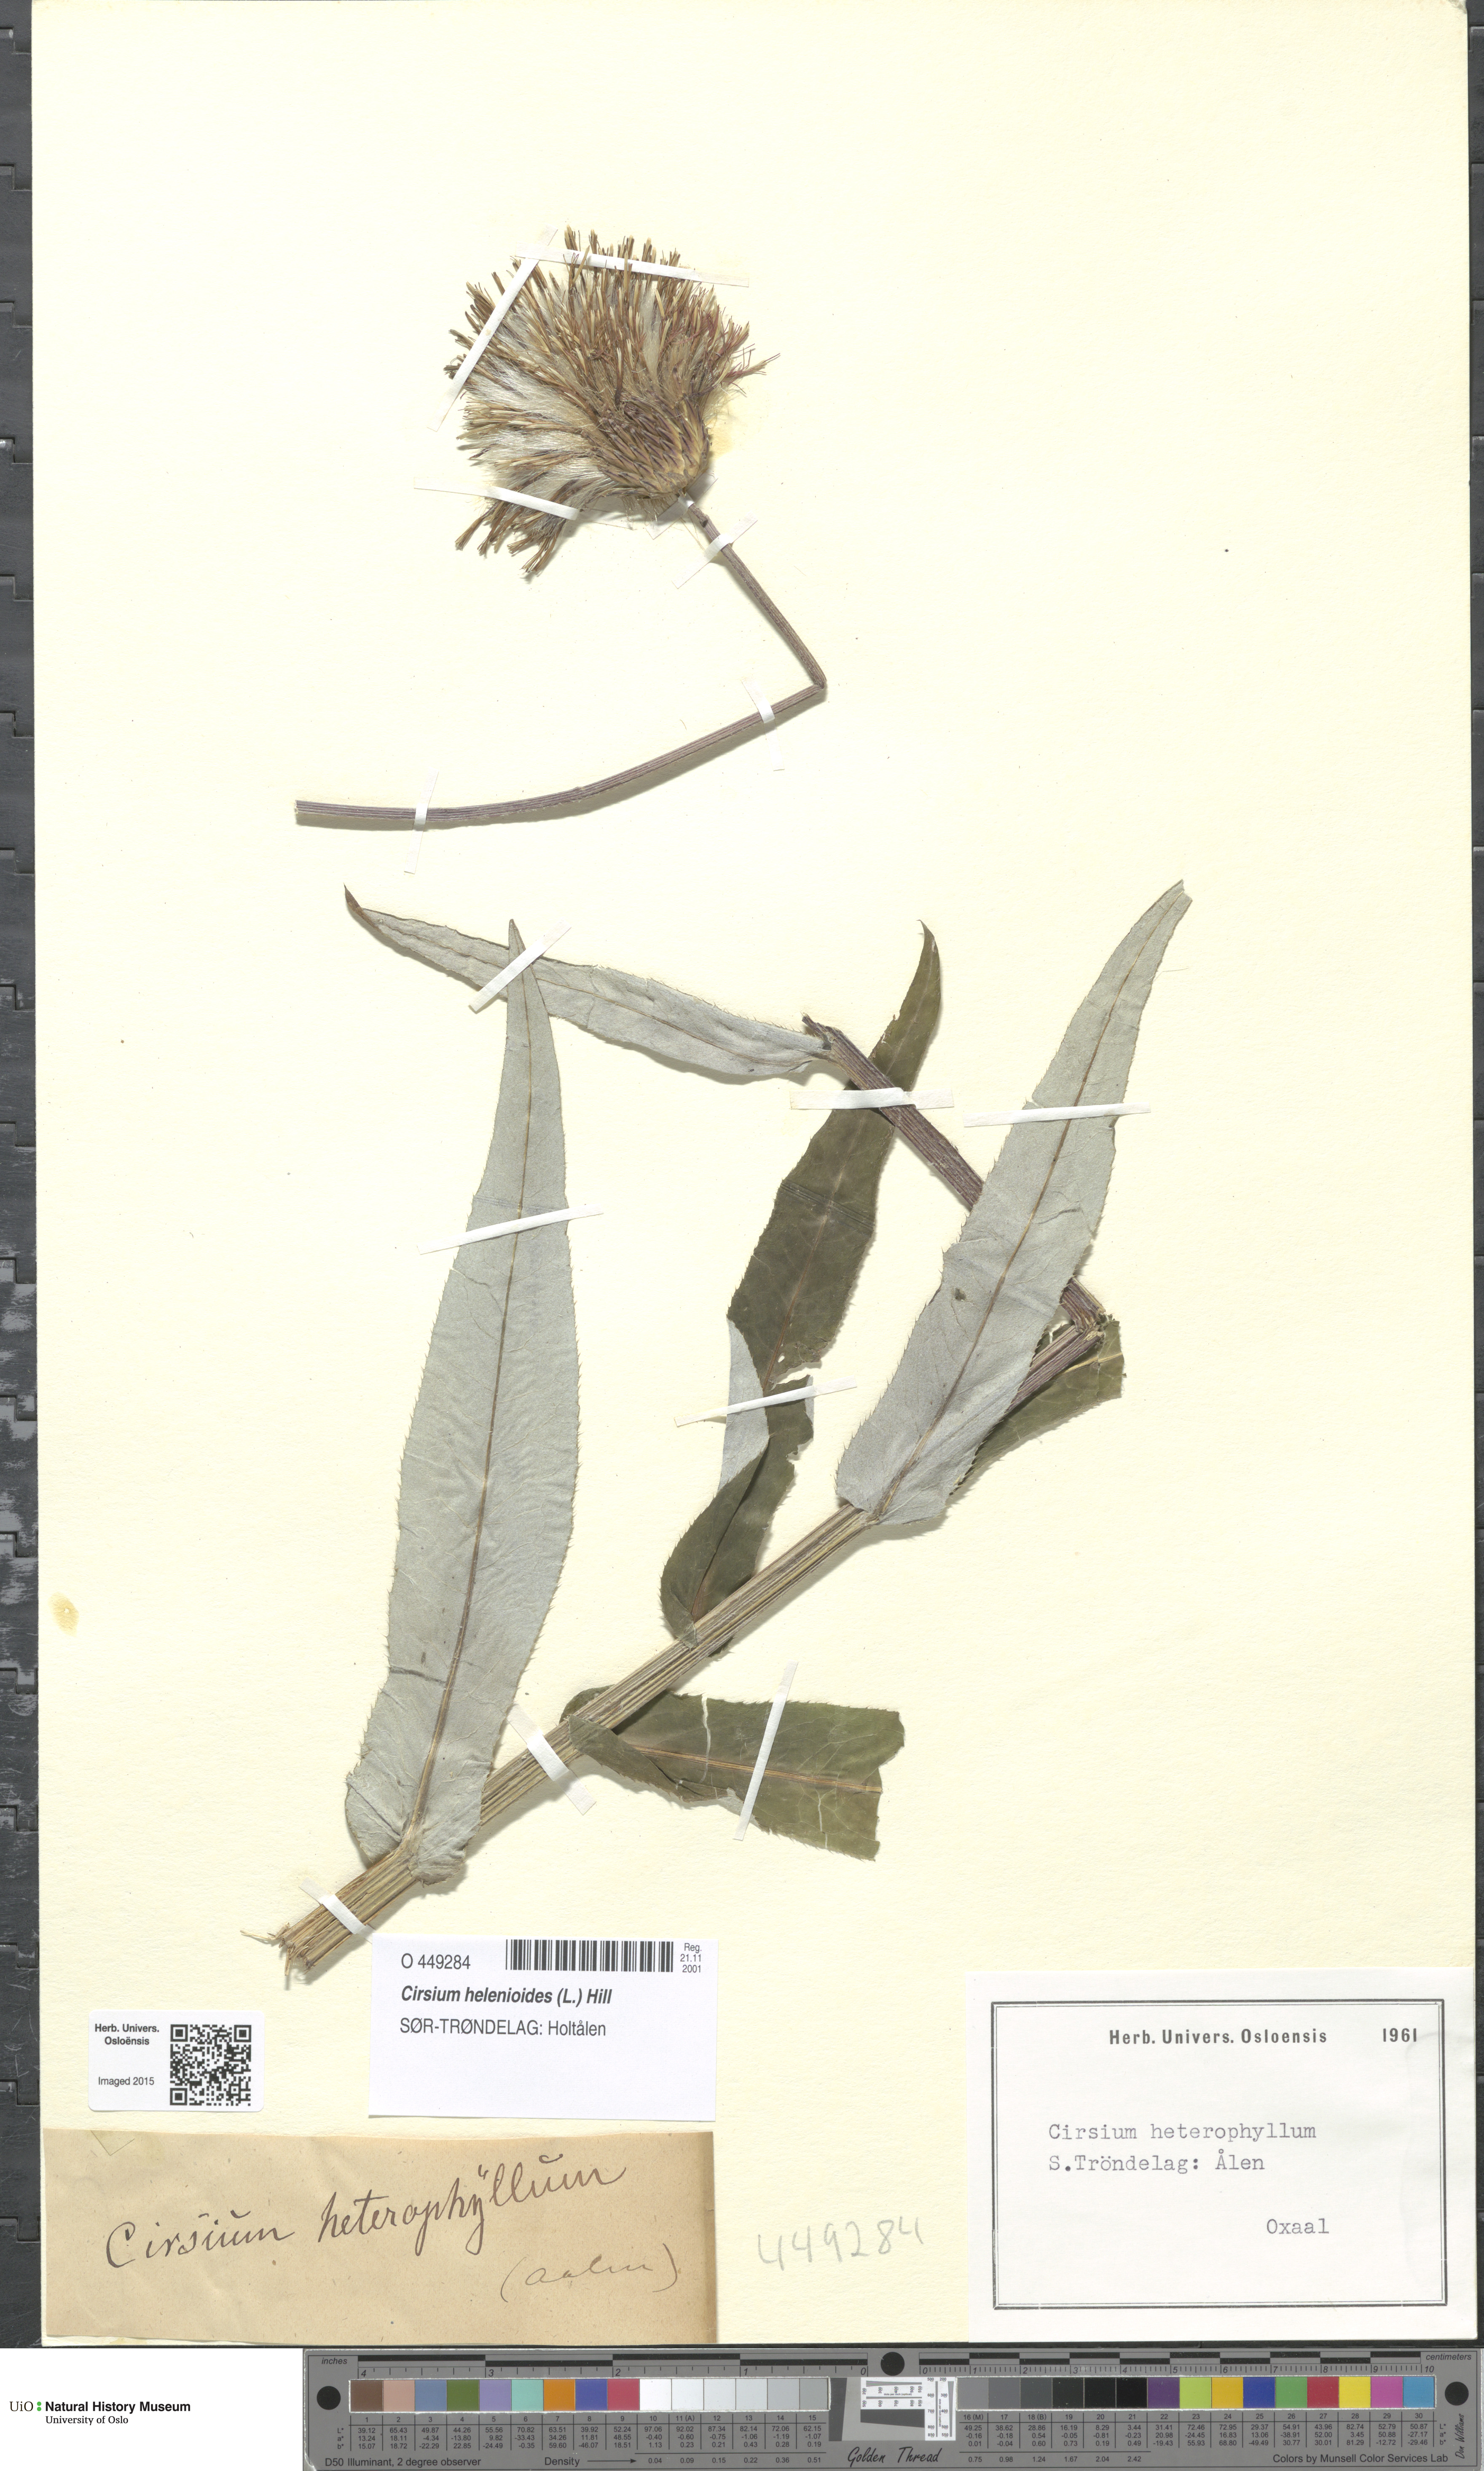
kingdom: Plantae
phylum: Tracheophyta
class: Magnoliopsida
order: Asterales
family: Asteraceae
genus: Cirsium
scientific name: Cirsium heterophyllum
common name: Melancholy thistle
